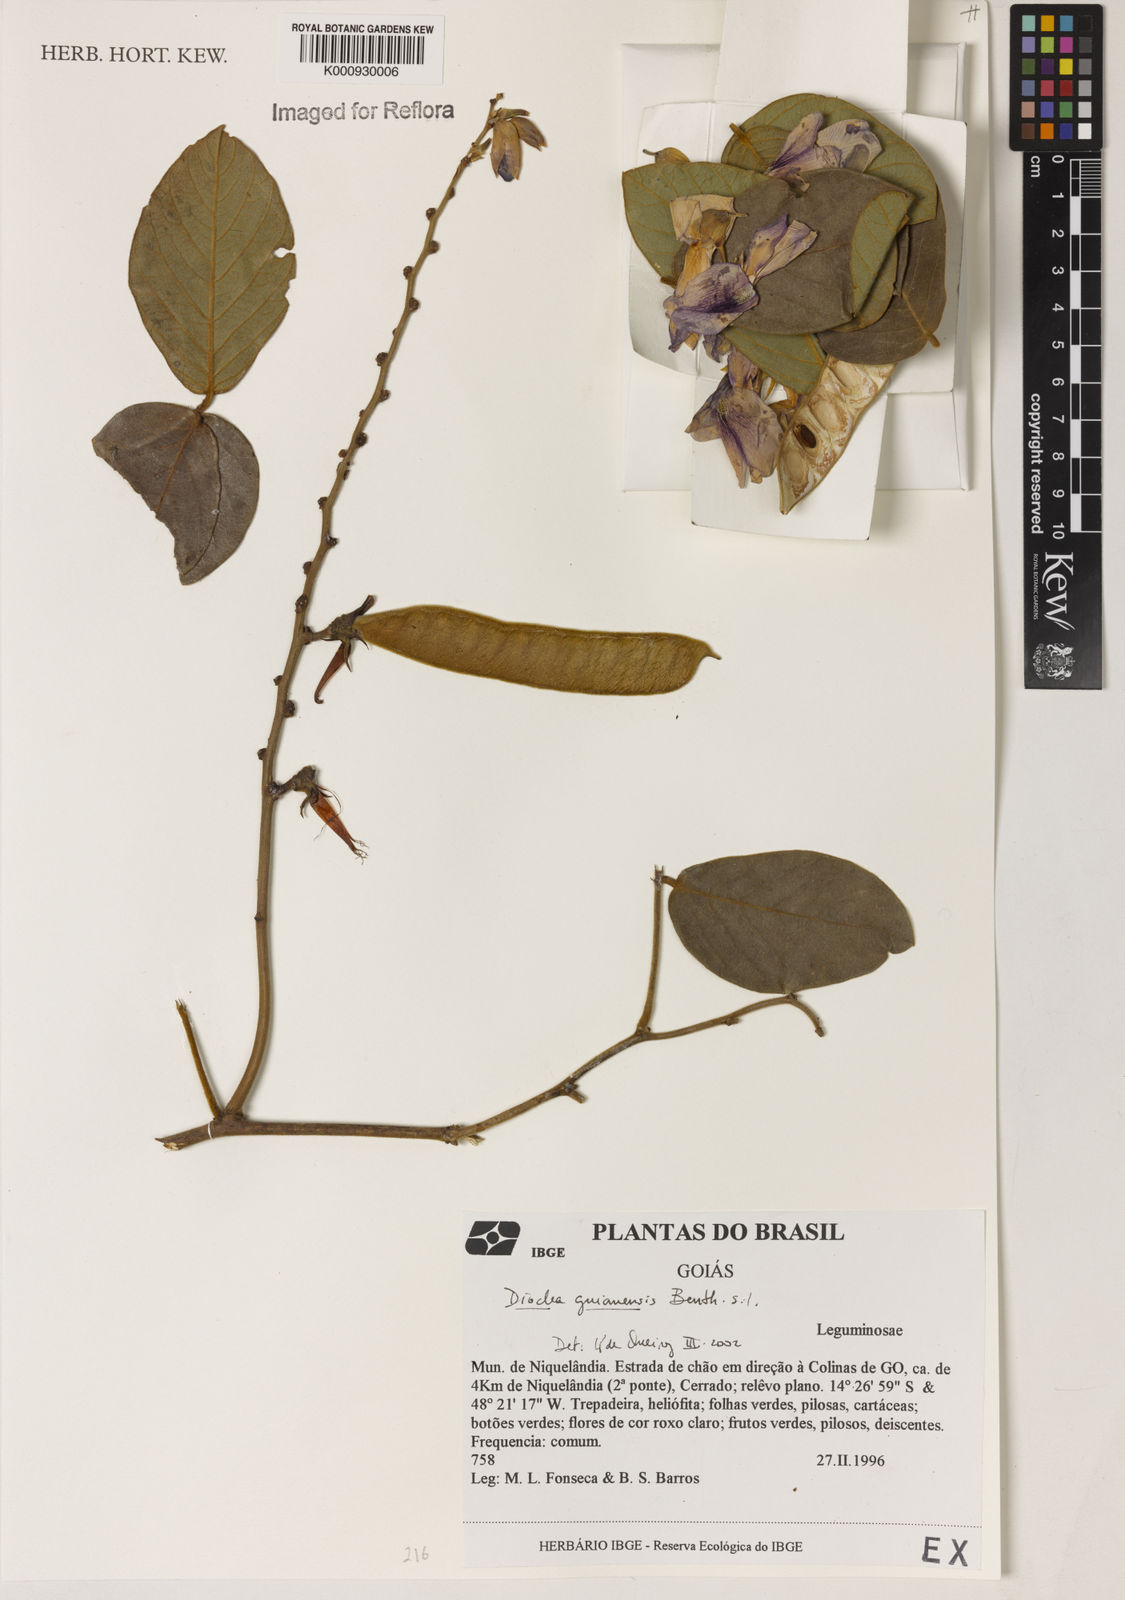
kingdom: Plantae
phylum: Tracheophyta
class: Magnoliopsida
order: Fabales
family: Fabaceae
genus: Dioclea
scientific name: Dioclea guianensis
